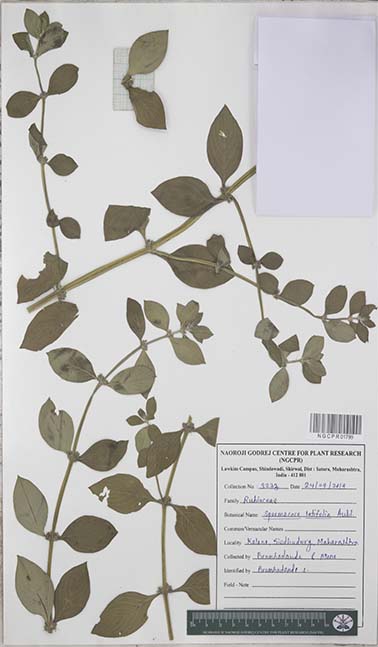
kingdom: Plantae
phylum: Tracheophyta
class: Magnoliopsida
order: Gentianales
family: Rubiaceae
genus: Spermacoce
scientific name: Spermacoce latifolia
